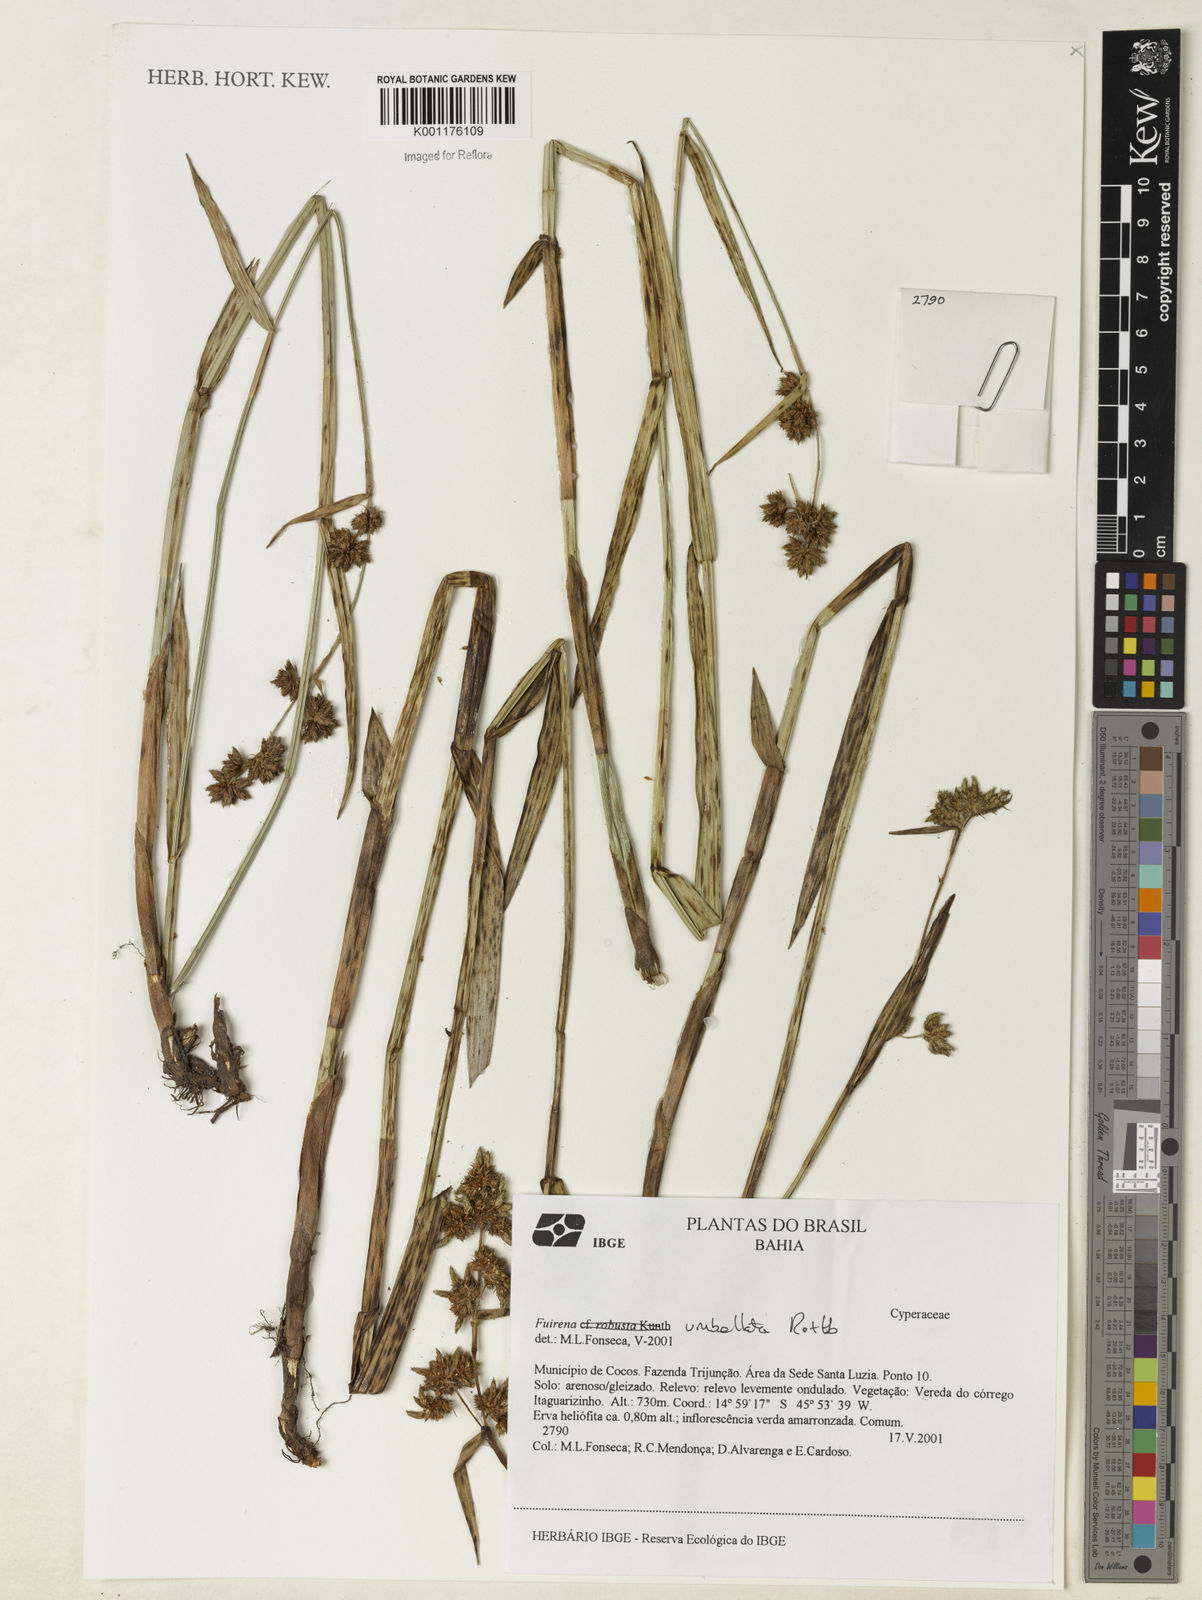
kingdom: Plantae
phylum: Tracheophyta
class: Liliopsida
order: Poales
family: Cyperaceae
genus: Fuirena
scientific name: Fuirena umbellata
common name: Yefen
